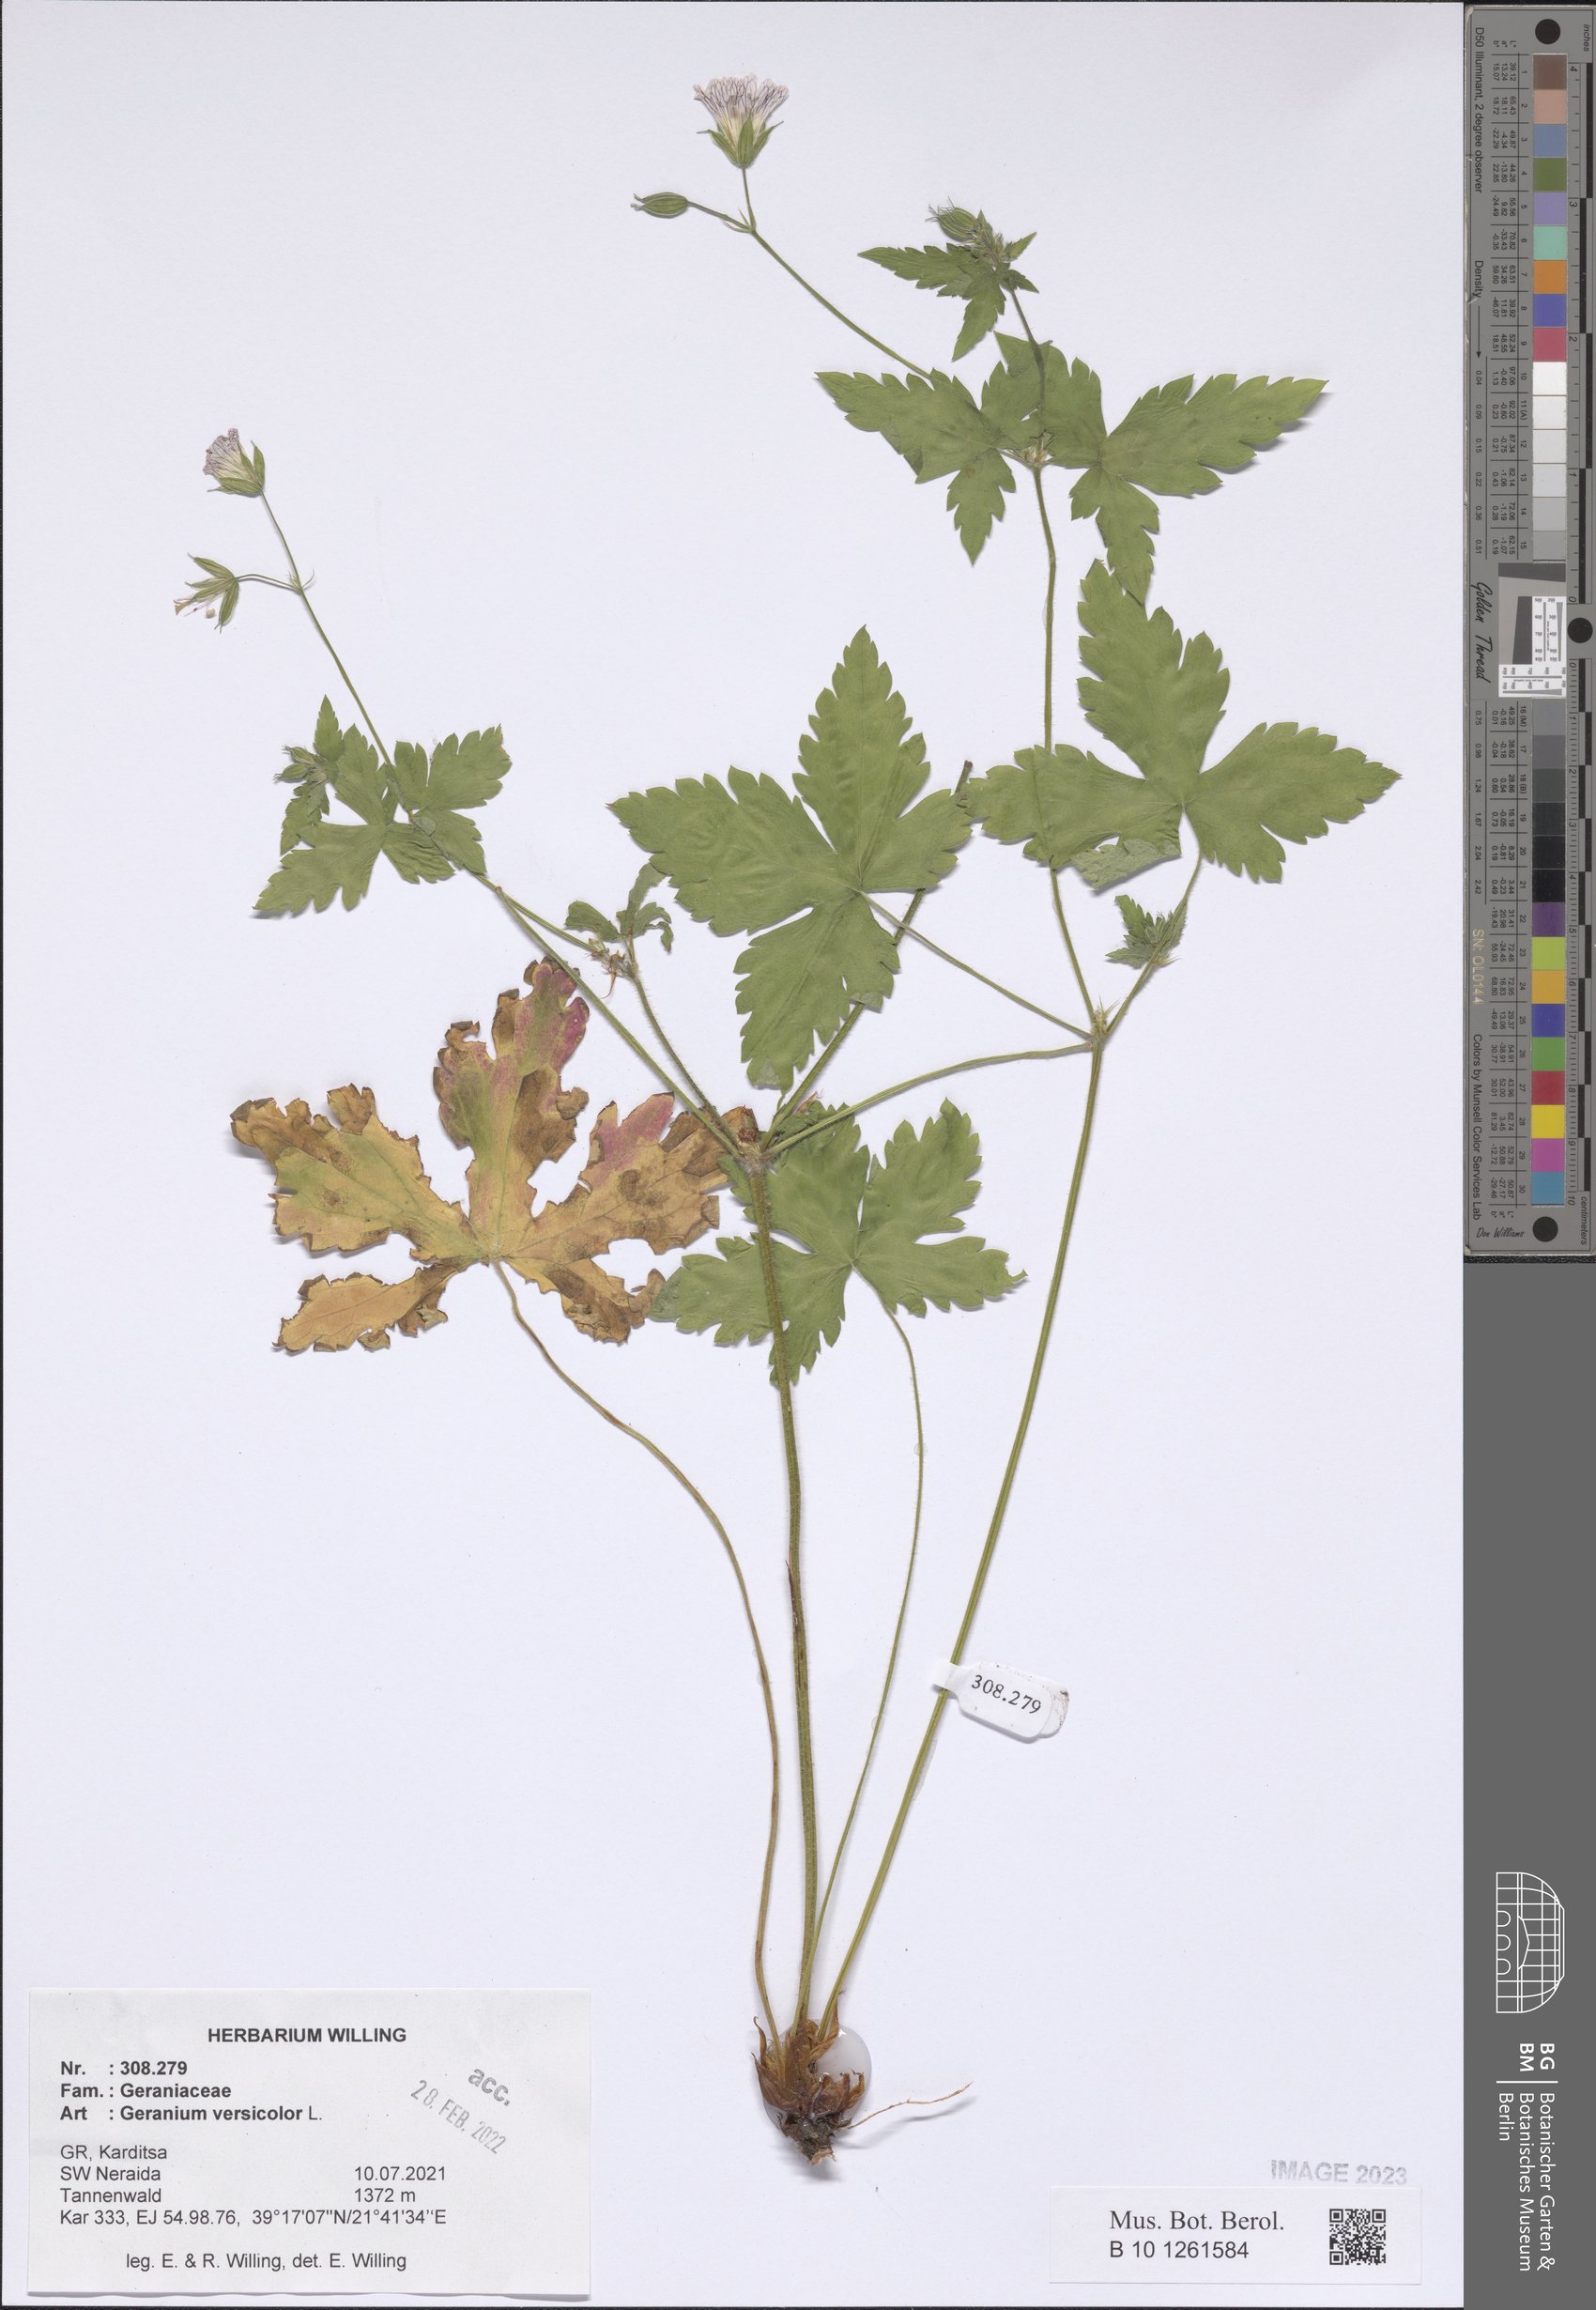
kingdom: Plantae
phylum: Tracheophyta
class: Magnoliopsida
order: Geraniales
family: Geraniaceae
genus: Geranium
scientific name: Geranium versicolor
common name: Pencilled crane's-bill
